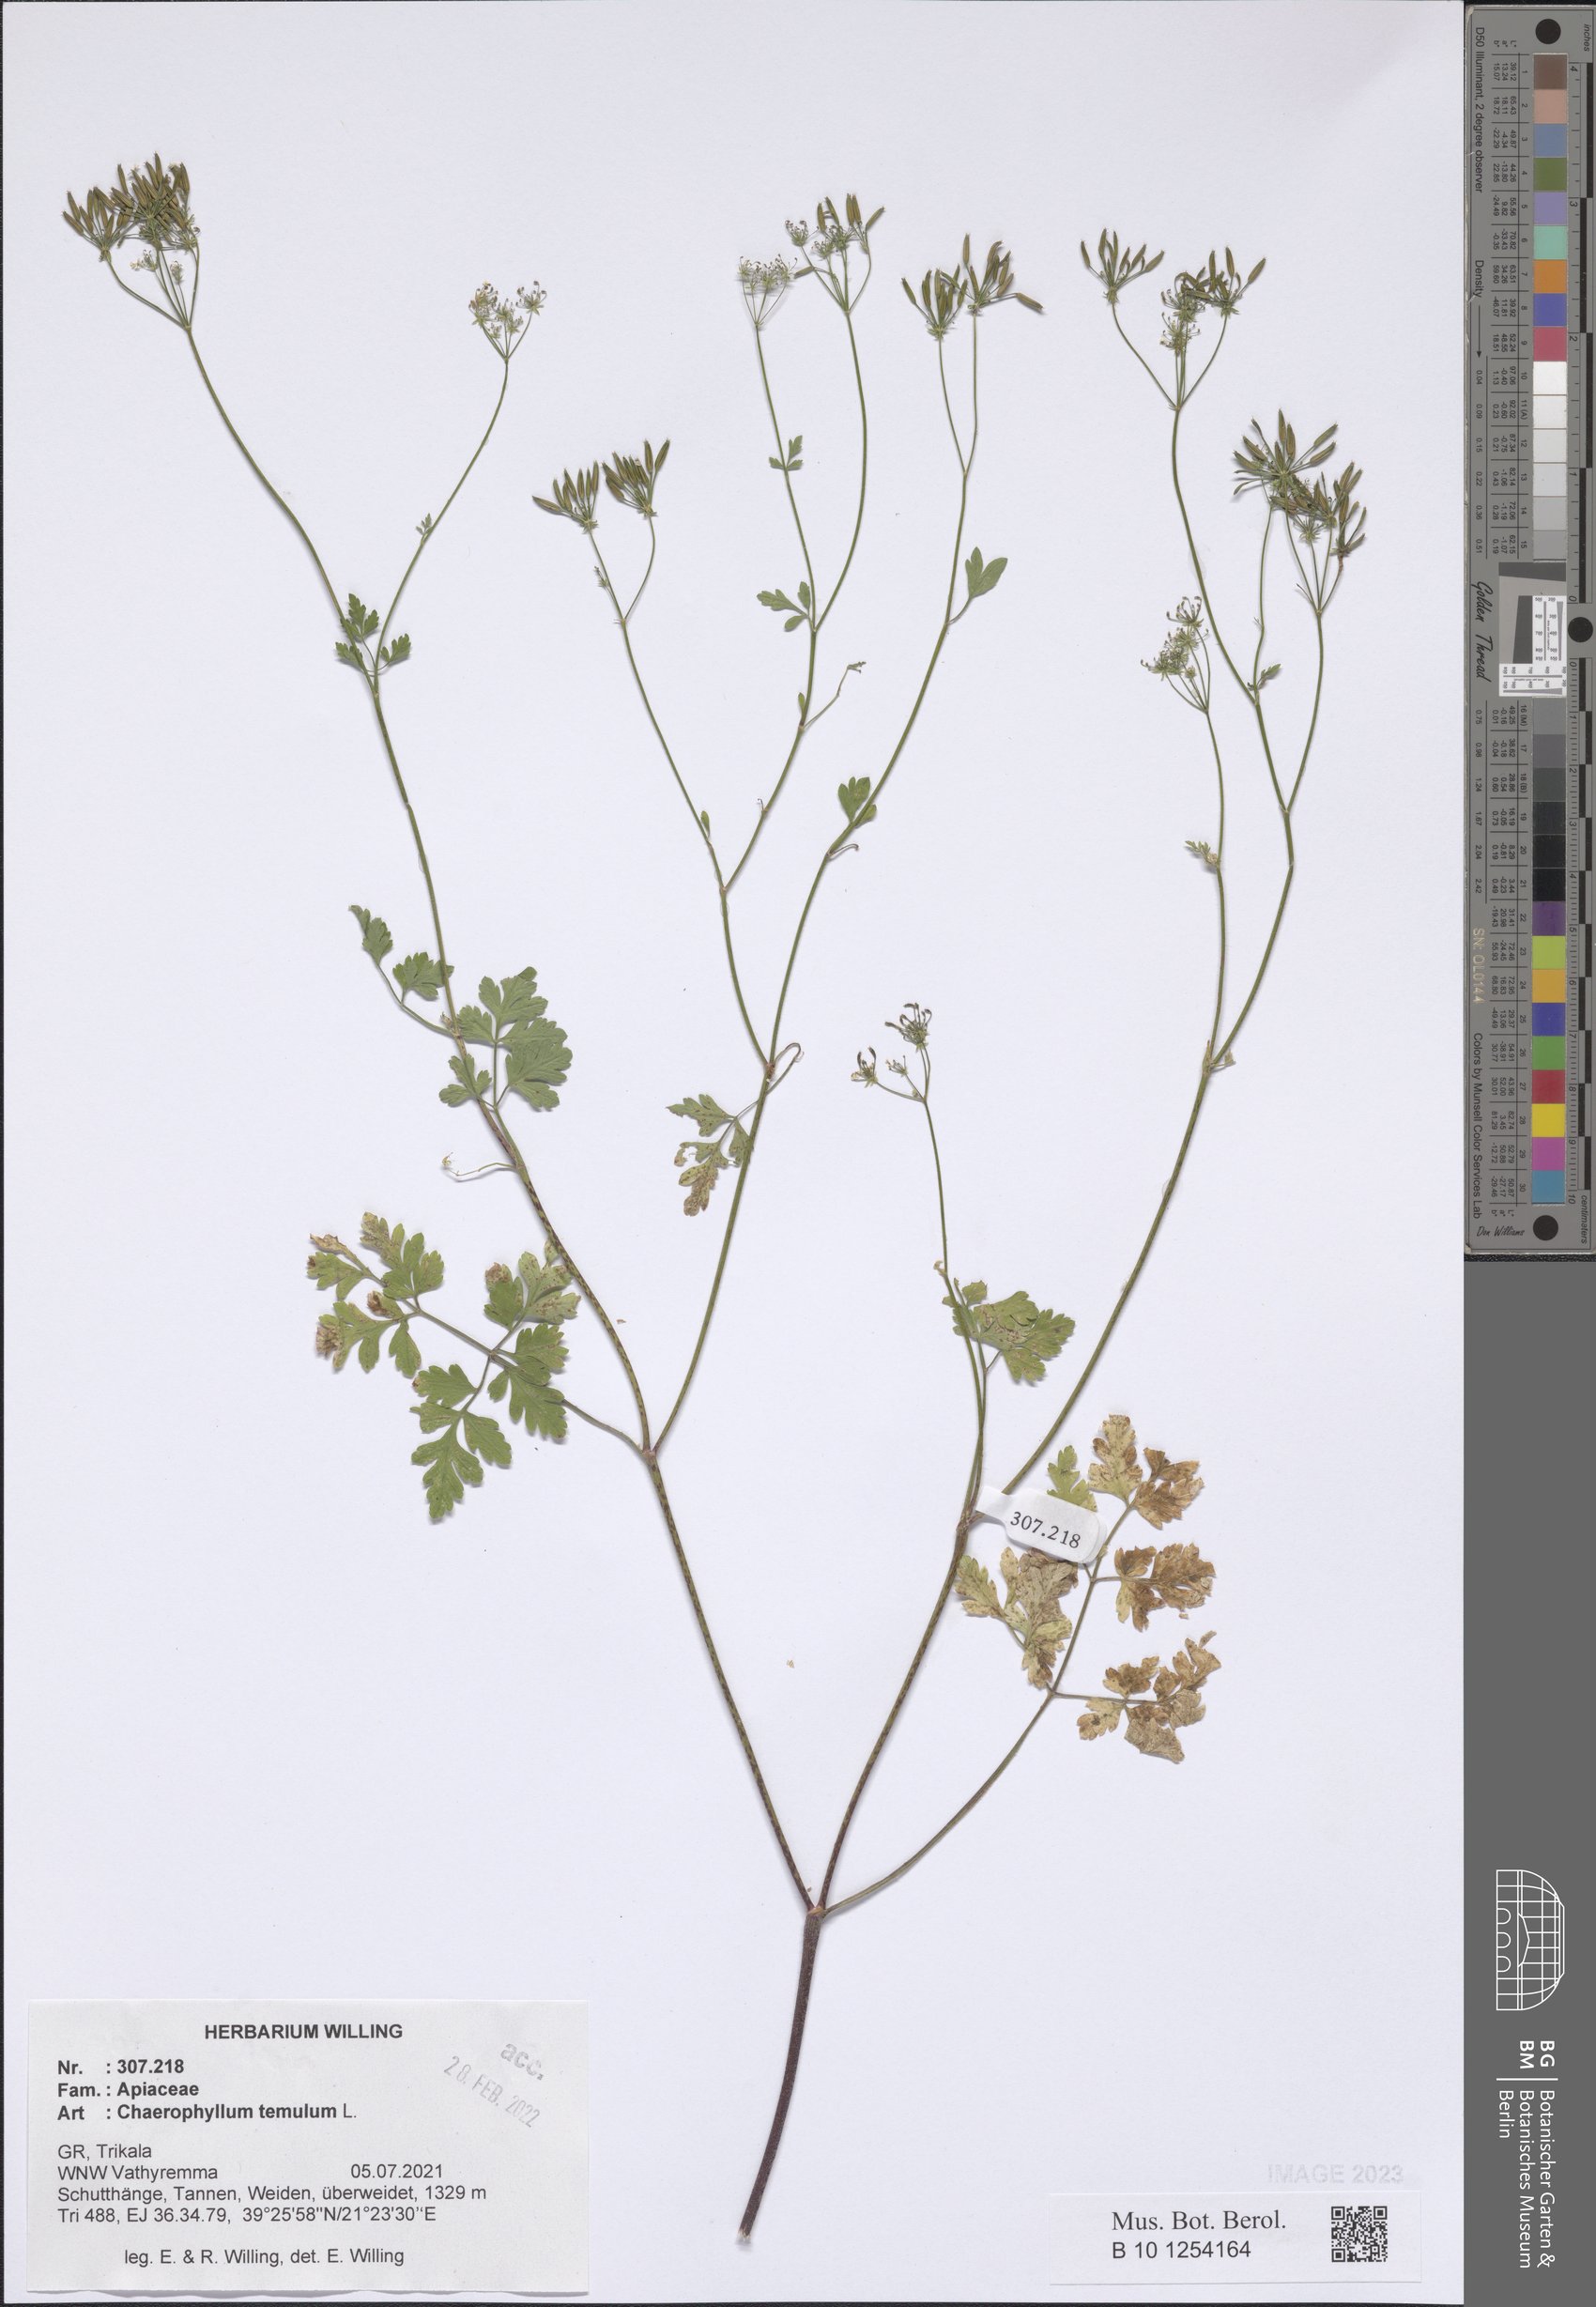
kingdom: Plantae
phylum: Tracheophyta
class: Magnoliopsida
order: Apiales
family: Apiaceae
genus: Chaerophyllum
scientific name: Chaerophyllum temulum
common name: Rough chervil
